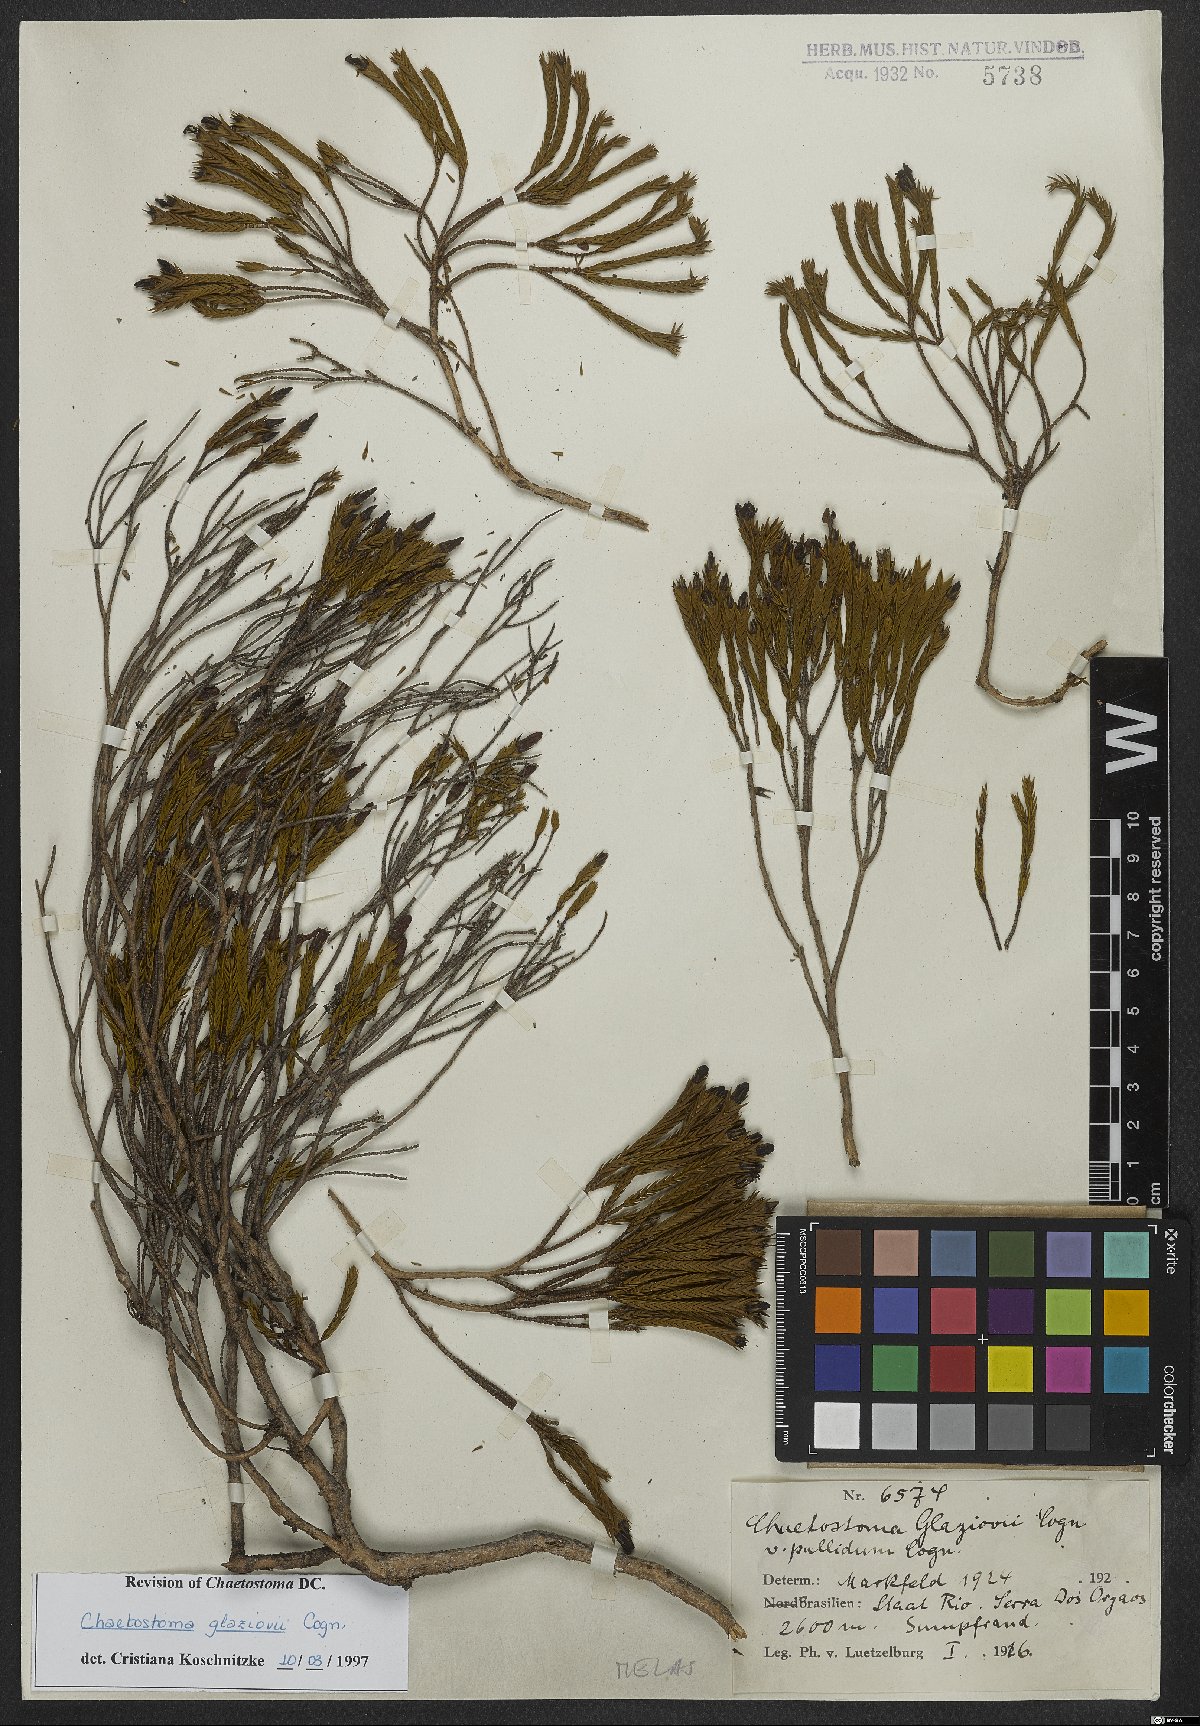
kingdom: Plantae
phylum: Tracheophyta
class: Magnoliopsida
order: Myrtales
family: Melastomataceae
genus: Microlicia
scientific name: Microlicia glaziovii
